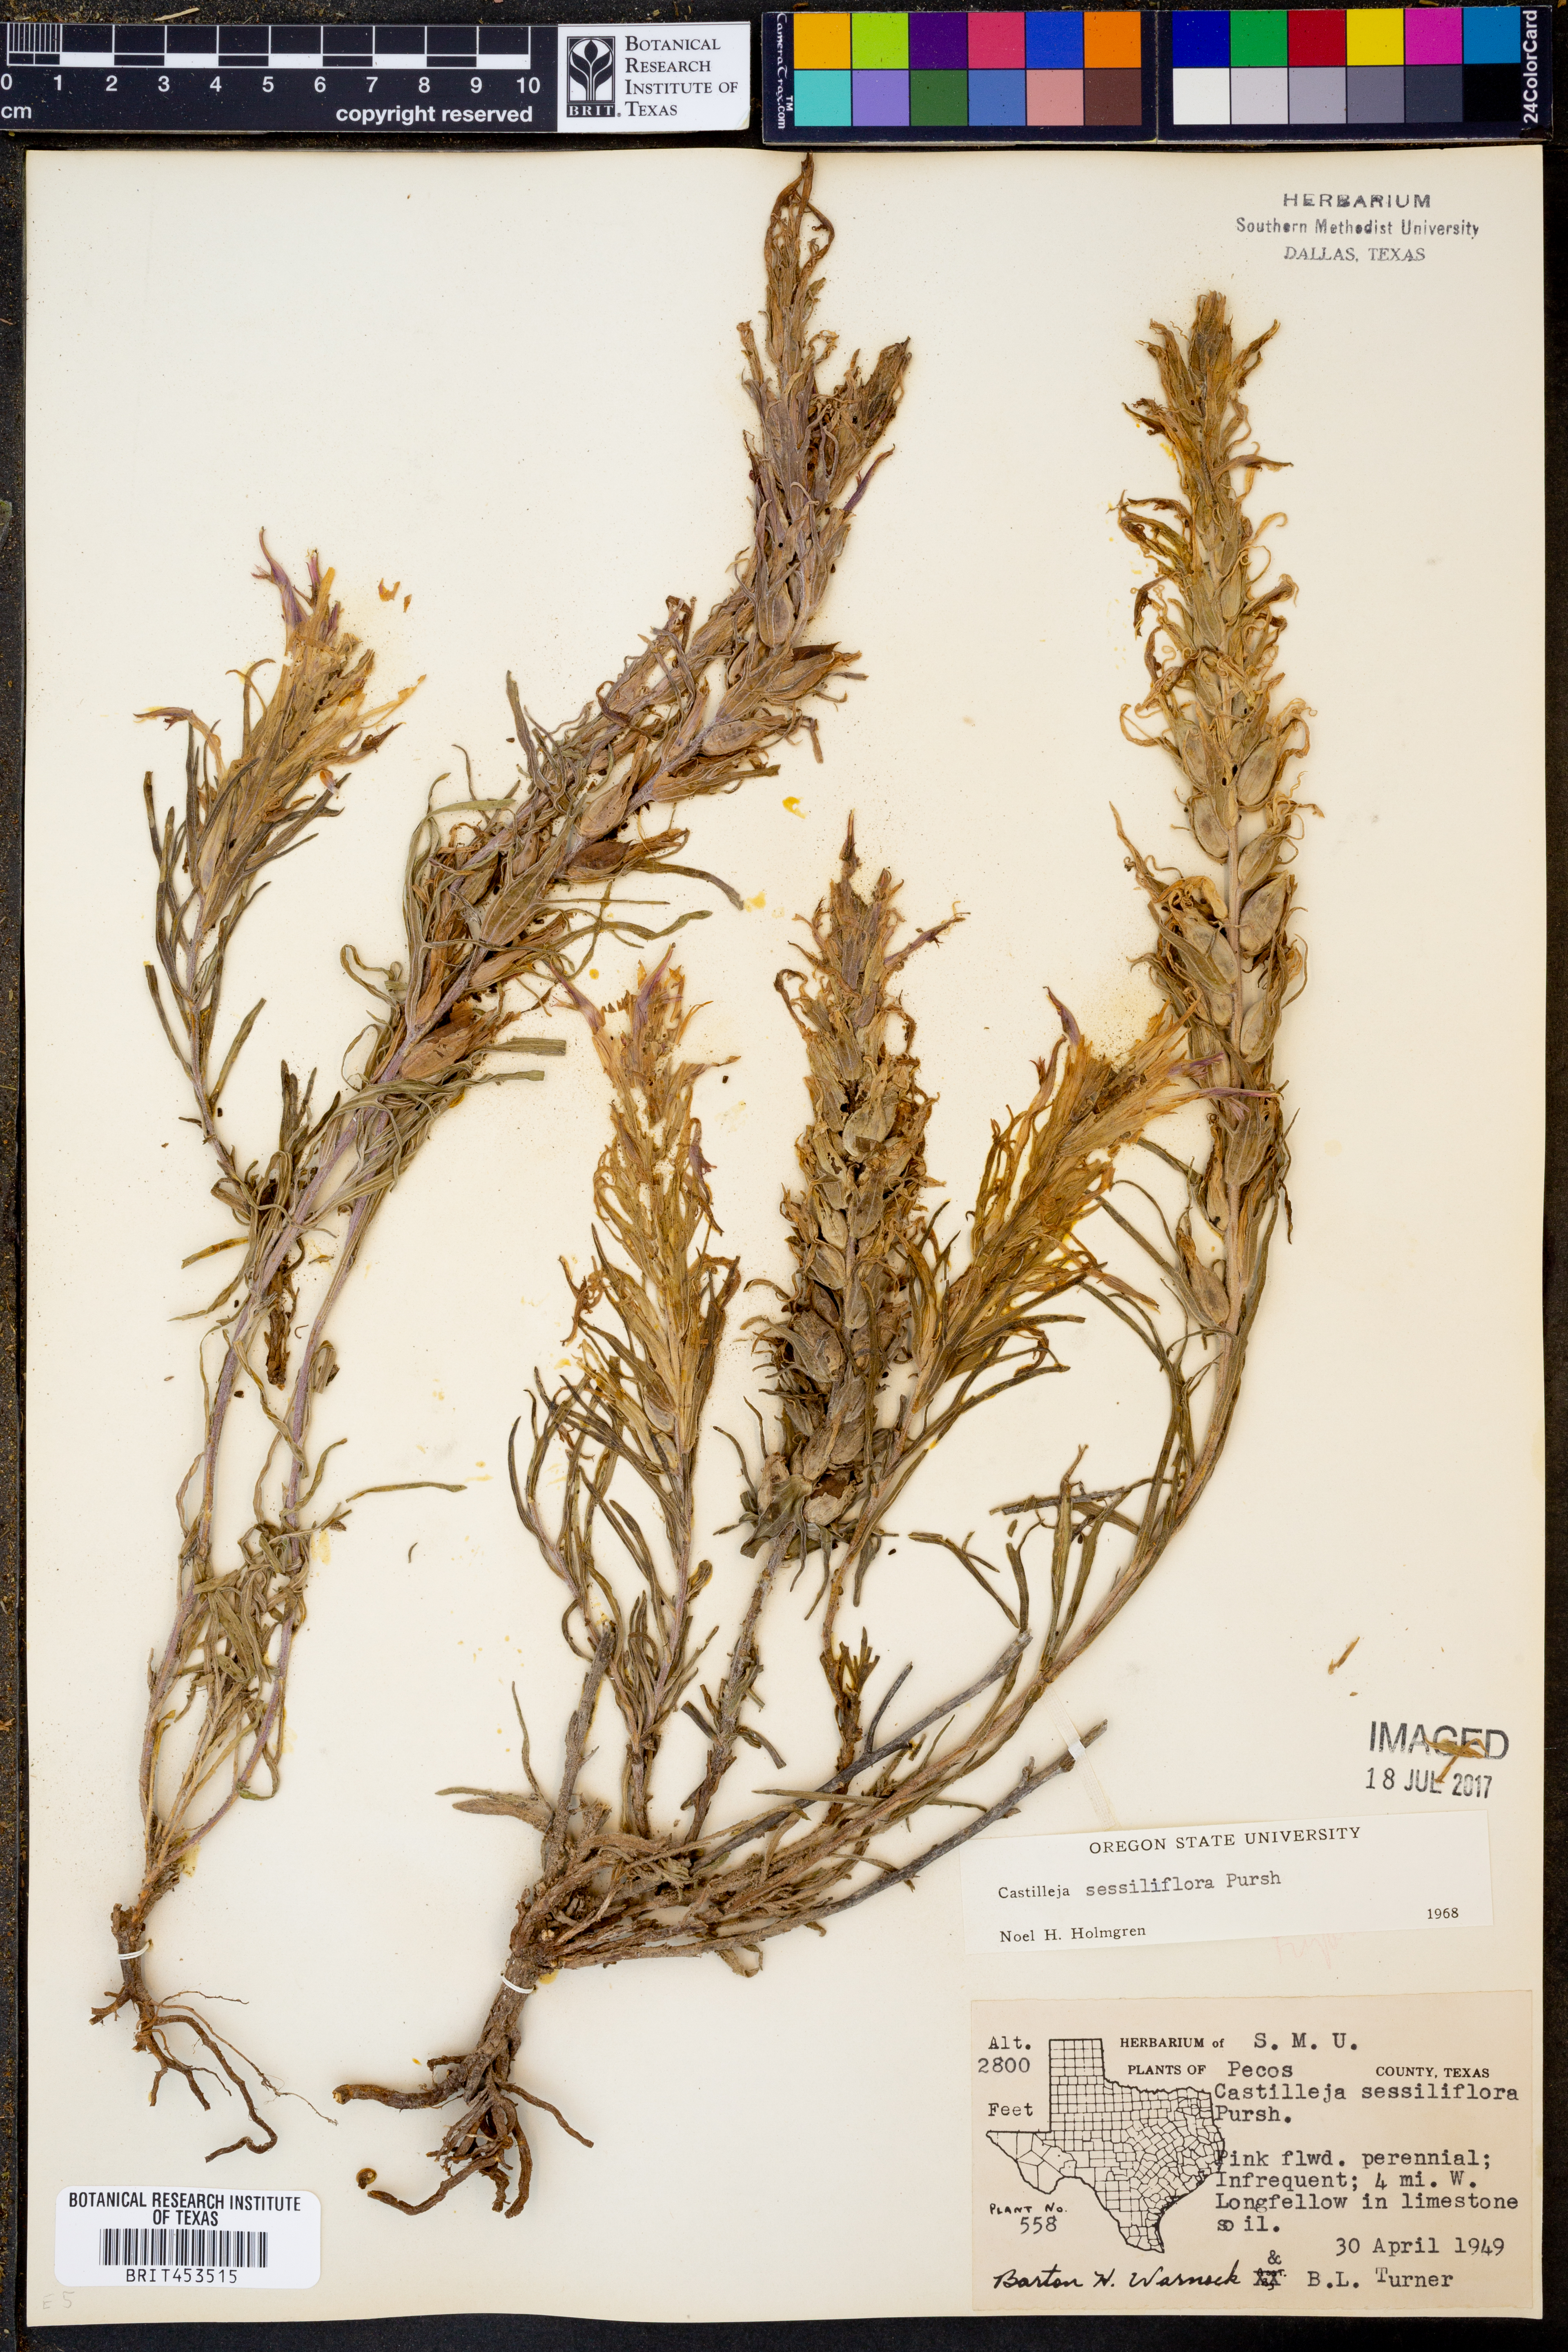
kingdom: Plantae
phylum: Tracheophyta
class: Magnoliopsida
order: Lamiales
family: Orobanchaceae
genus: Castilleja
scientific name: Castilleja sessiliflora
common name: Downy paintbrush
